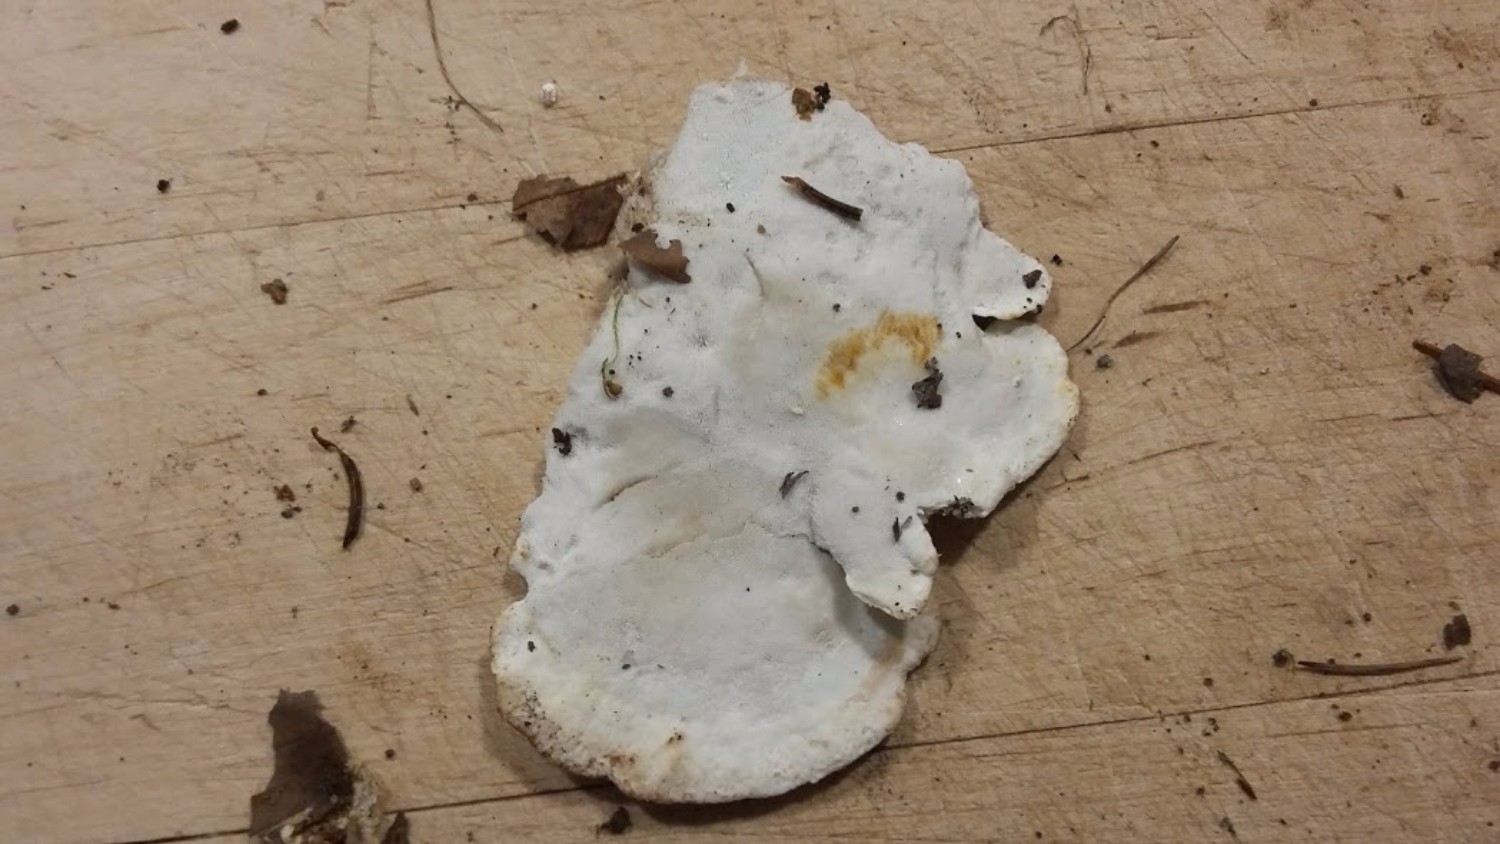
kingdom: Fungi
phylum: Basidiomycota
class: Agaricomycetes
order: Polyporales
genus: Calcipostia
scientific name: Calcipostia guttulata
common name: dråbe-kødporesvamp
